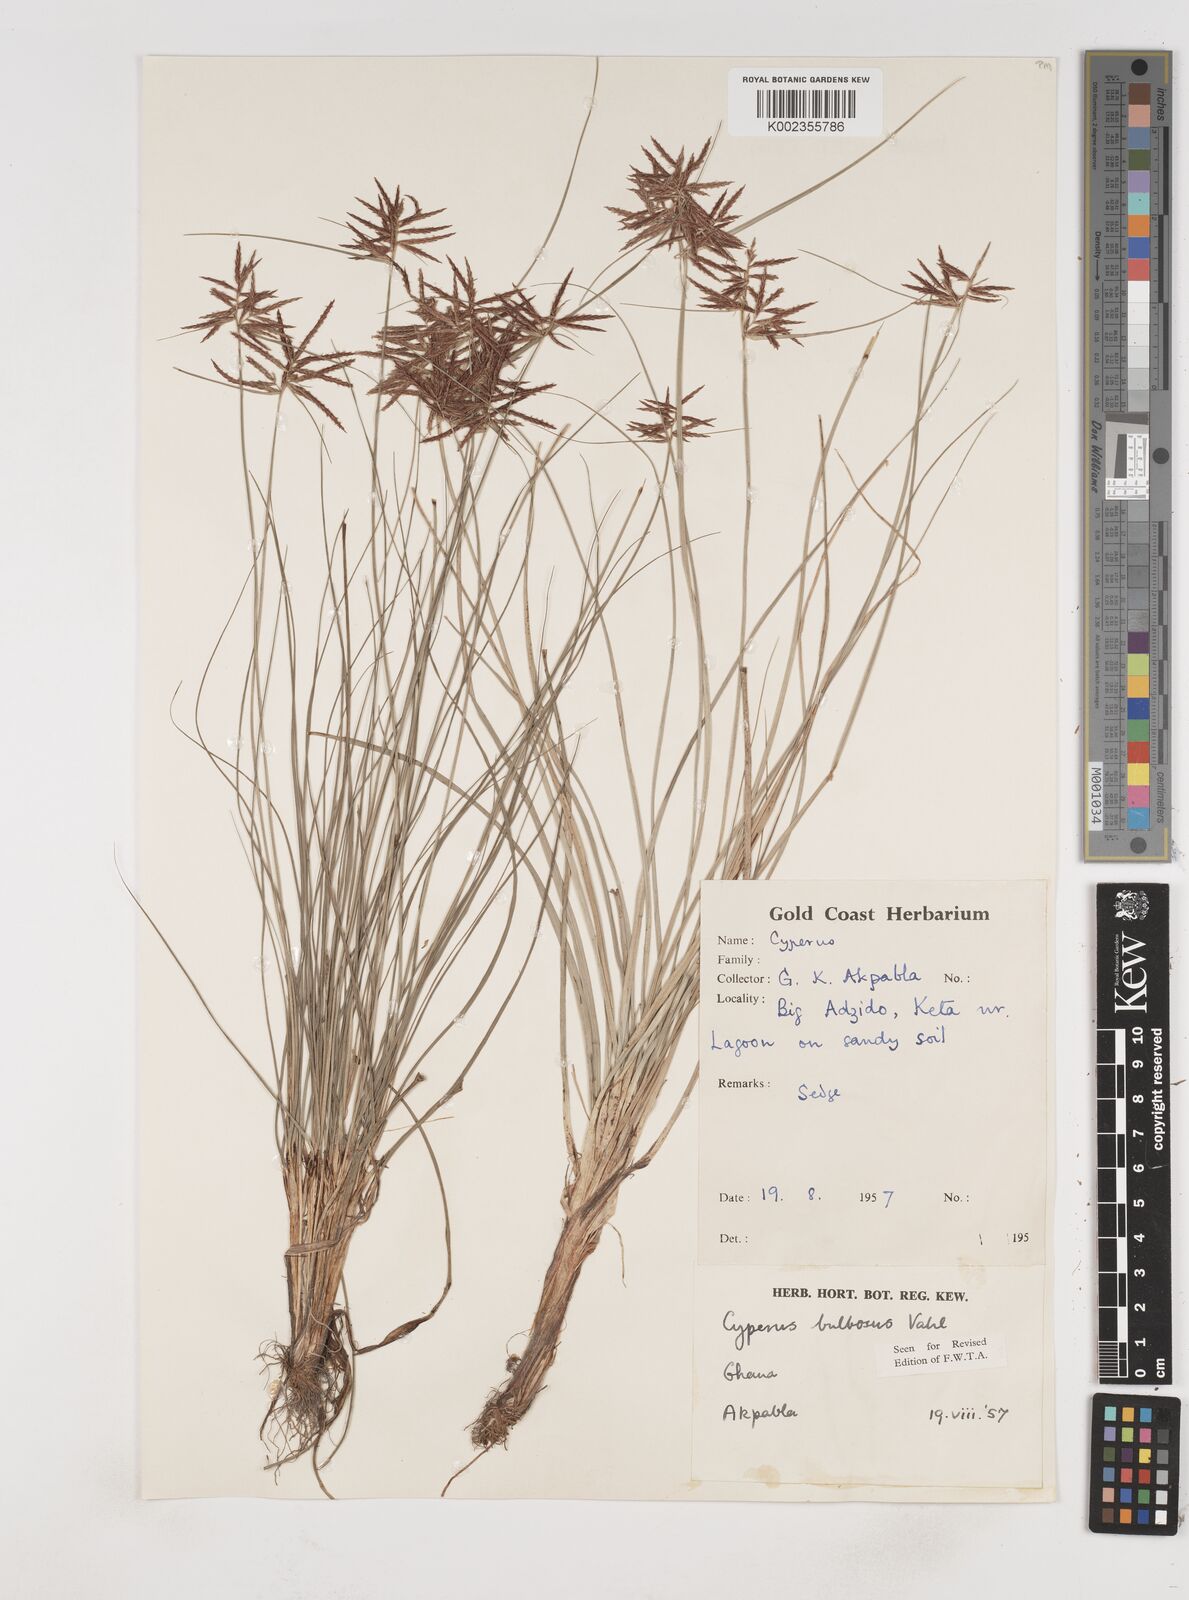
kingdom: Plantae
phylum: Tracheophyta
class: Liliopsida
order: Poales
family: Cyperaceae
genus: Cyperus
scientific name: Cyperus bulbosus
